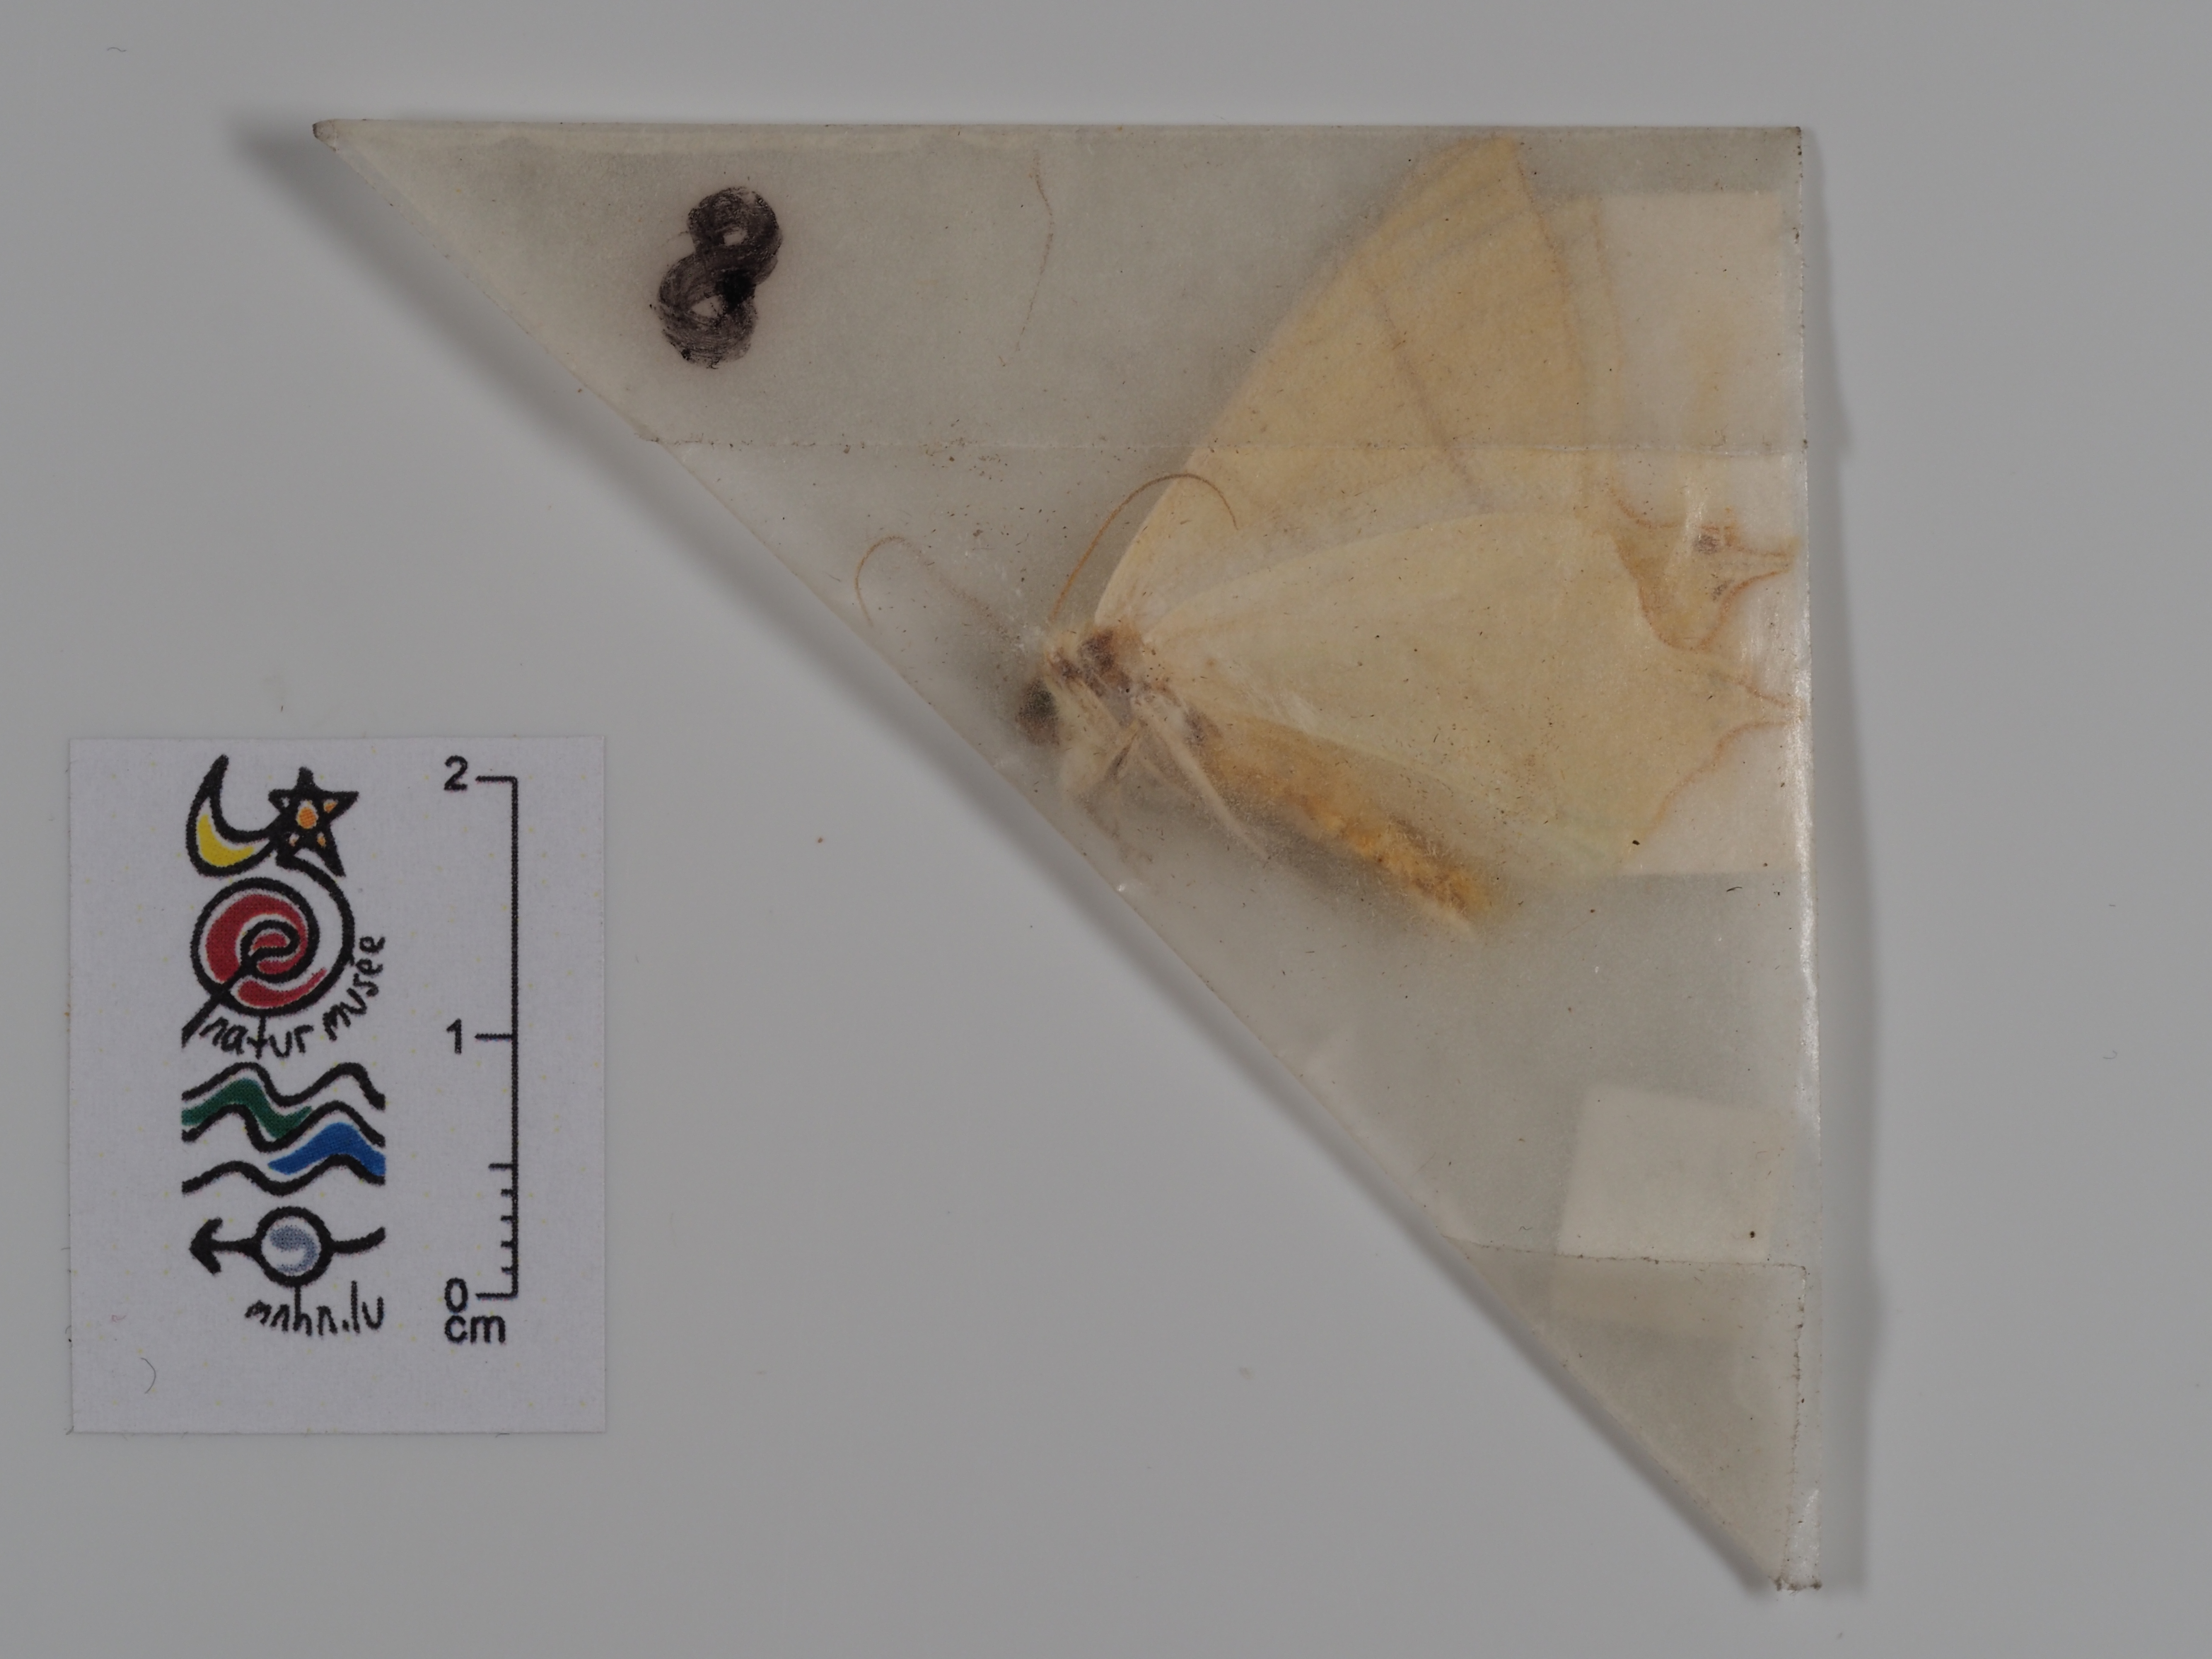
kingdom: Animalia
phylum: Arthropoda
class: Insecta
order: Lepidoptera
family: Geometridae
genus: Ourapteryx
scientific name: Ourapteryx sambucaria
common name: Swallow-tailed moth
